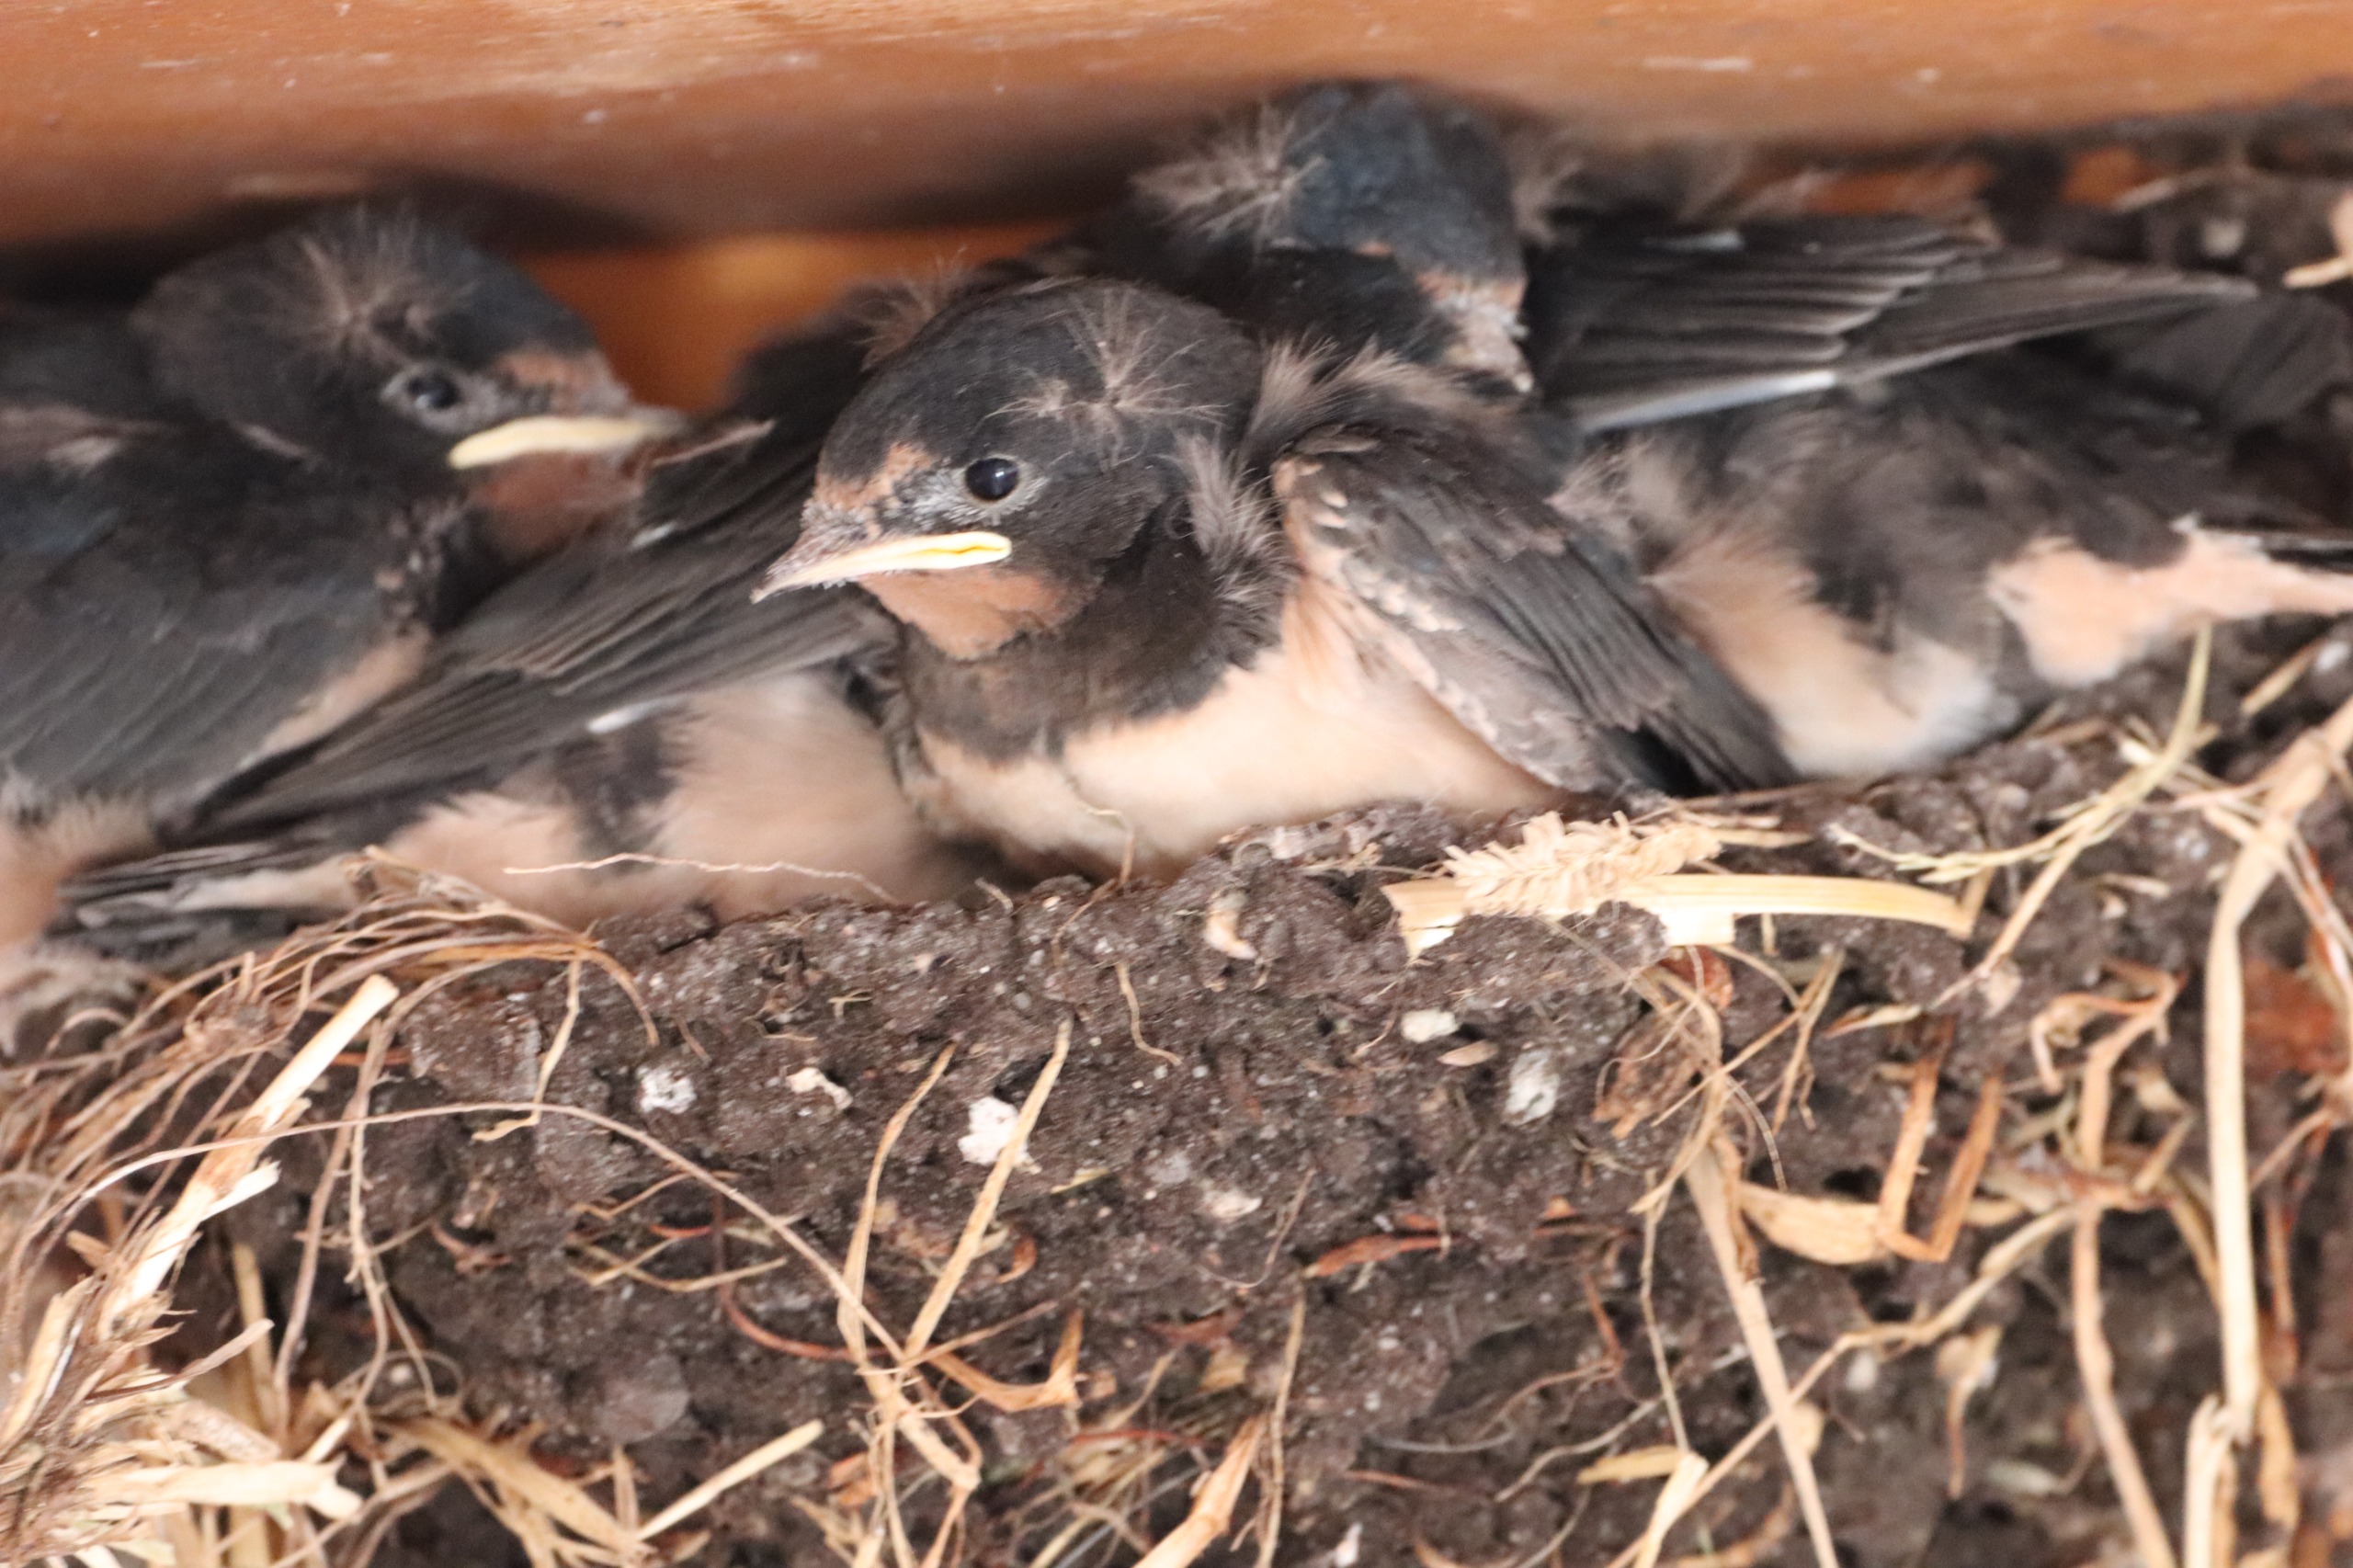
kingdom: Animalia
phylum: Chordata
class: Aves
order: Passeriformes
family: Hirundinidae
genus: Hirundo
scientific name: Hirundo rustica
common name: Landsvale
